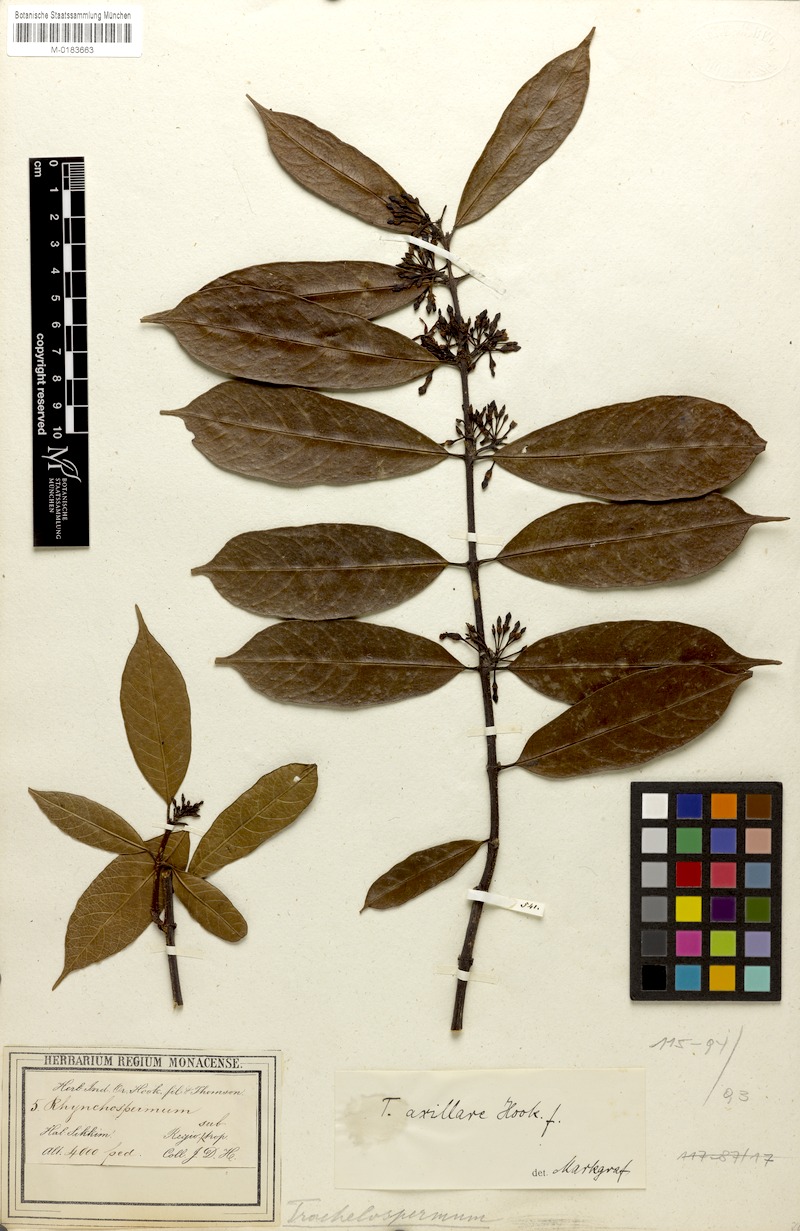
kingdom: Plantae
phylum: Tracheophyta
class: Magnoliopsida
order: Gentianales
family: Apocynaceae
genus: Trachelospermum
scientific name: Trachelospermum axillare
